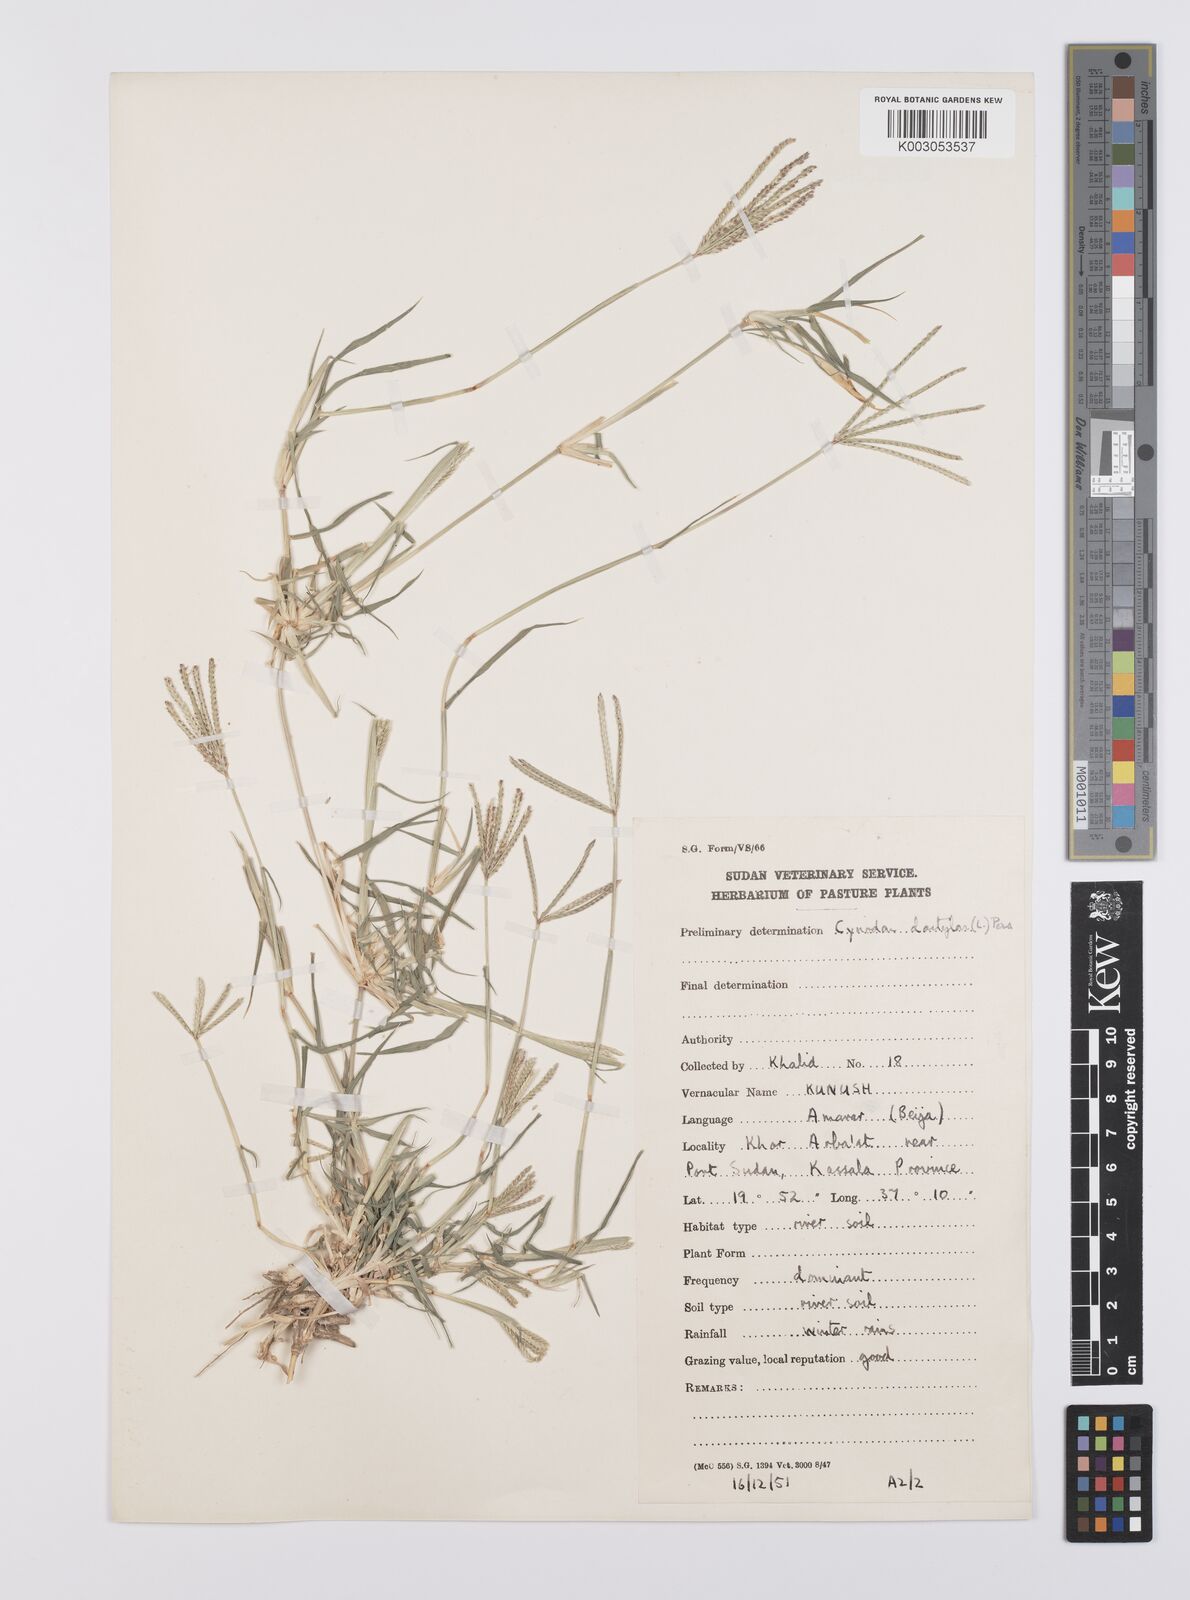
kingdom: Plantae
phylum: Tracheophyta
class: Liliopsida
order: Poales
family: Poaceae
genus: Cynodon
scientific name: Cynodon dactylon
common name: Bermuda grass
